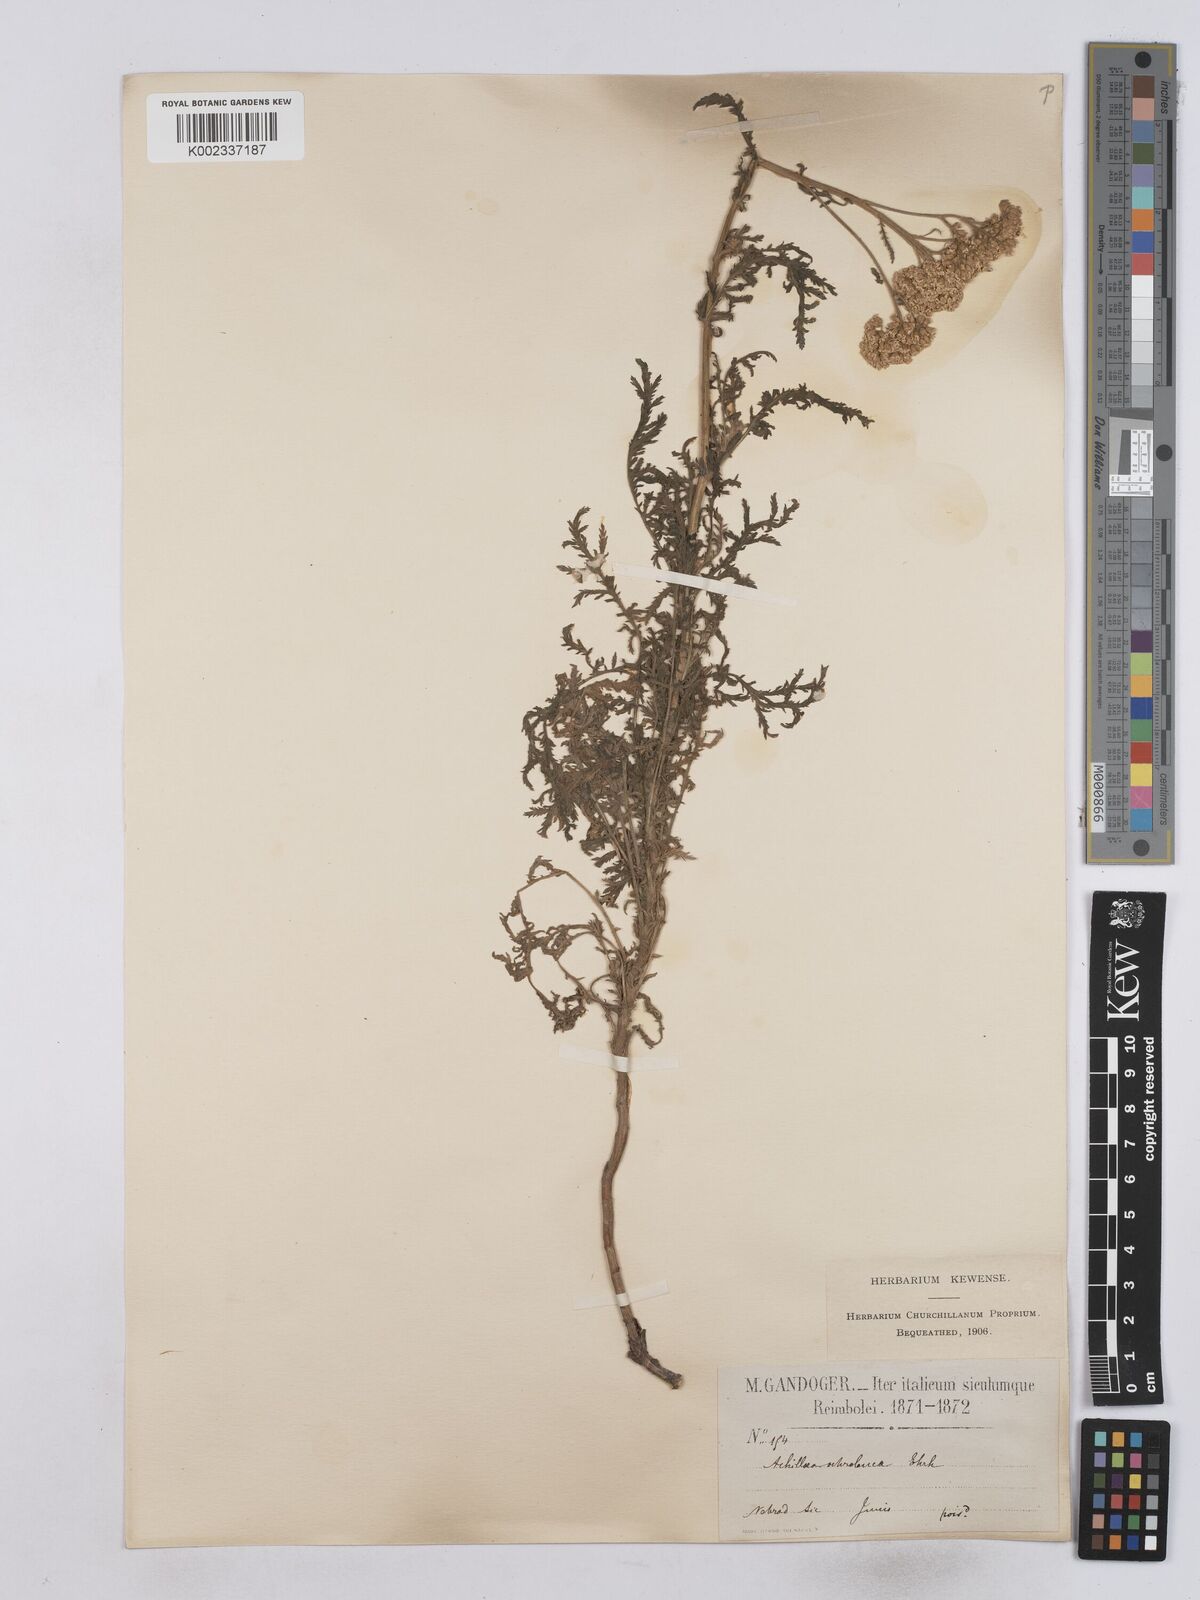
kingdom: Plantae
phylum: Tracheophyta
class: Magnoliopsida
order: Asterales
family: Asteraceae
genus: Achillea
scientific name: Achillea ligustica
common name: Southern yarrow
